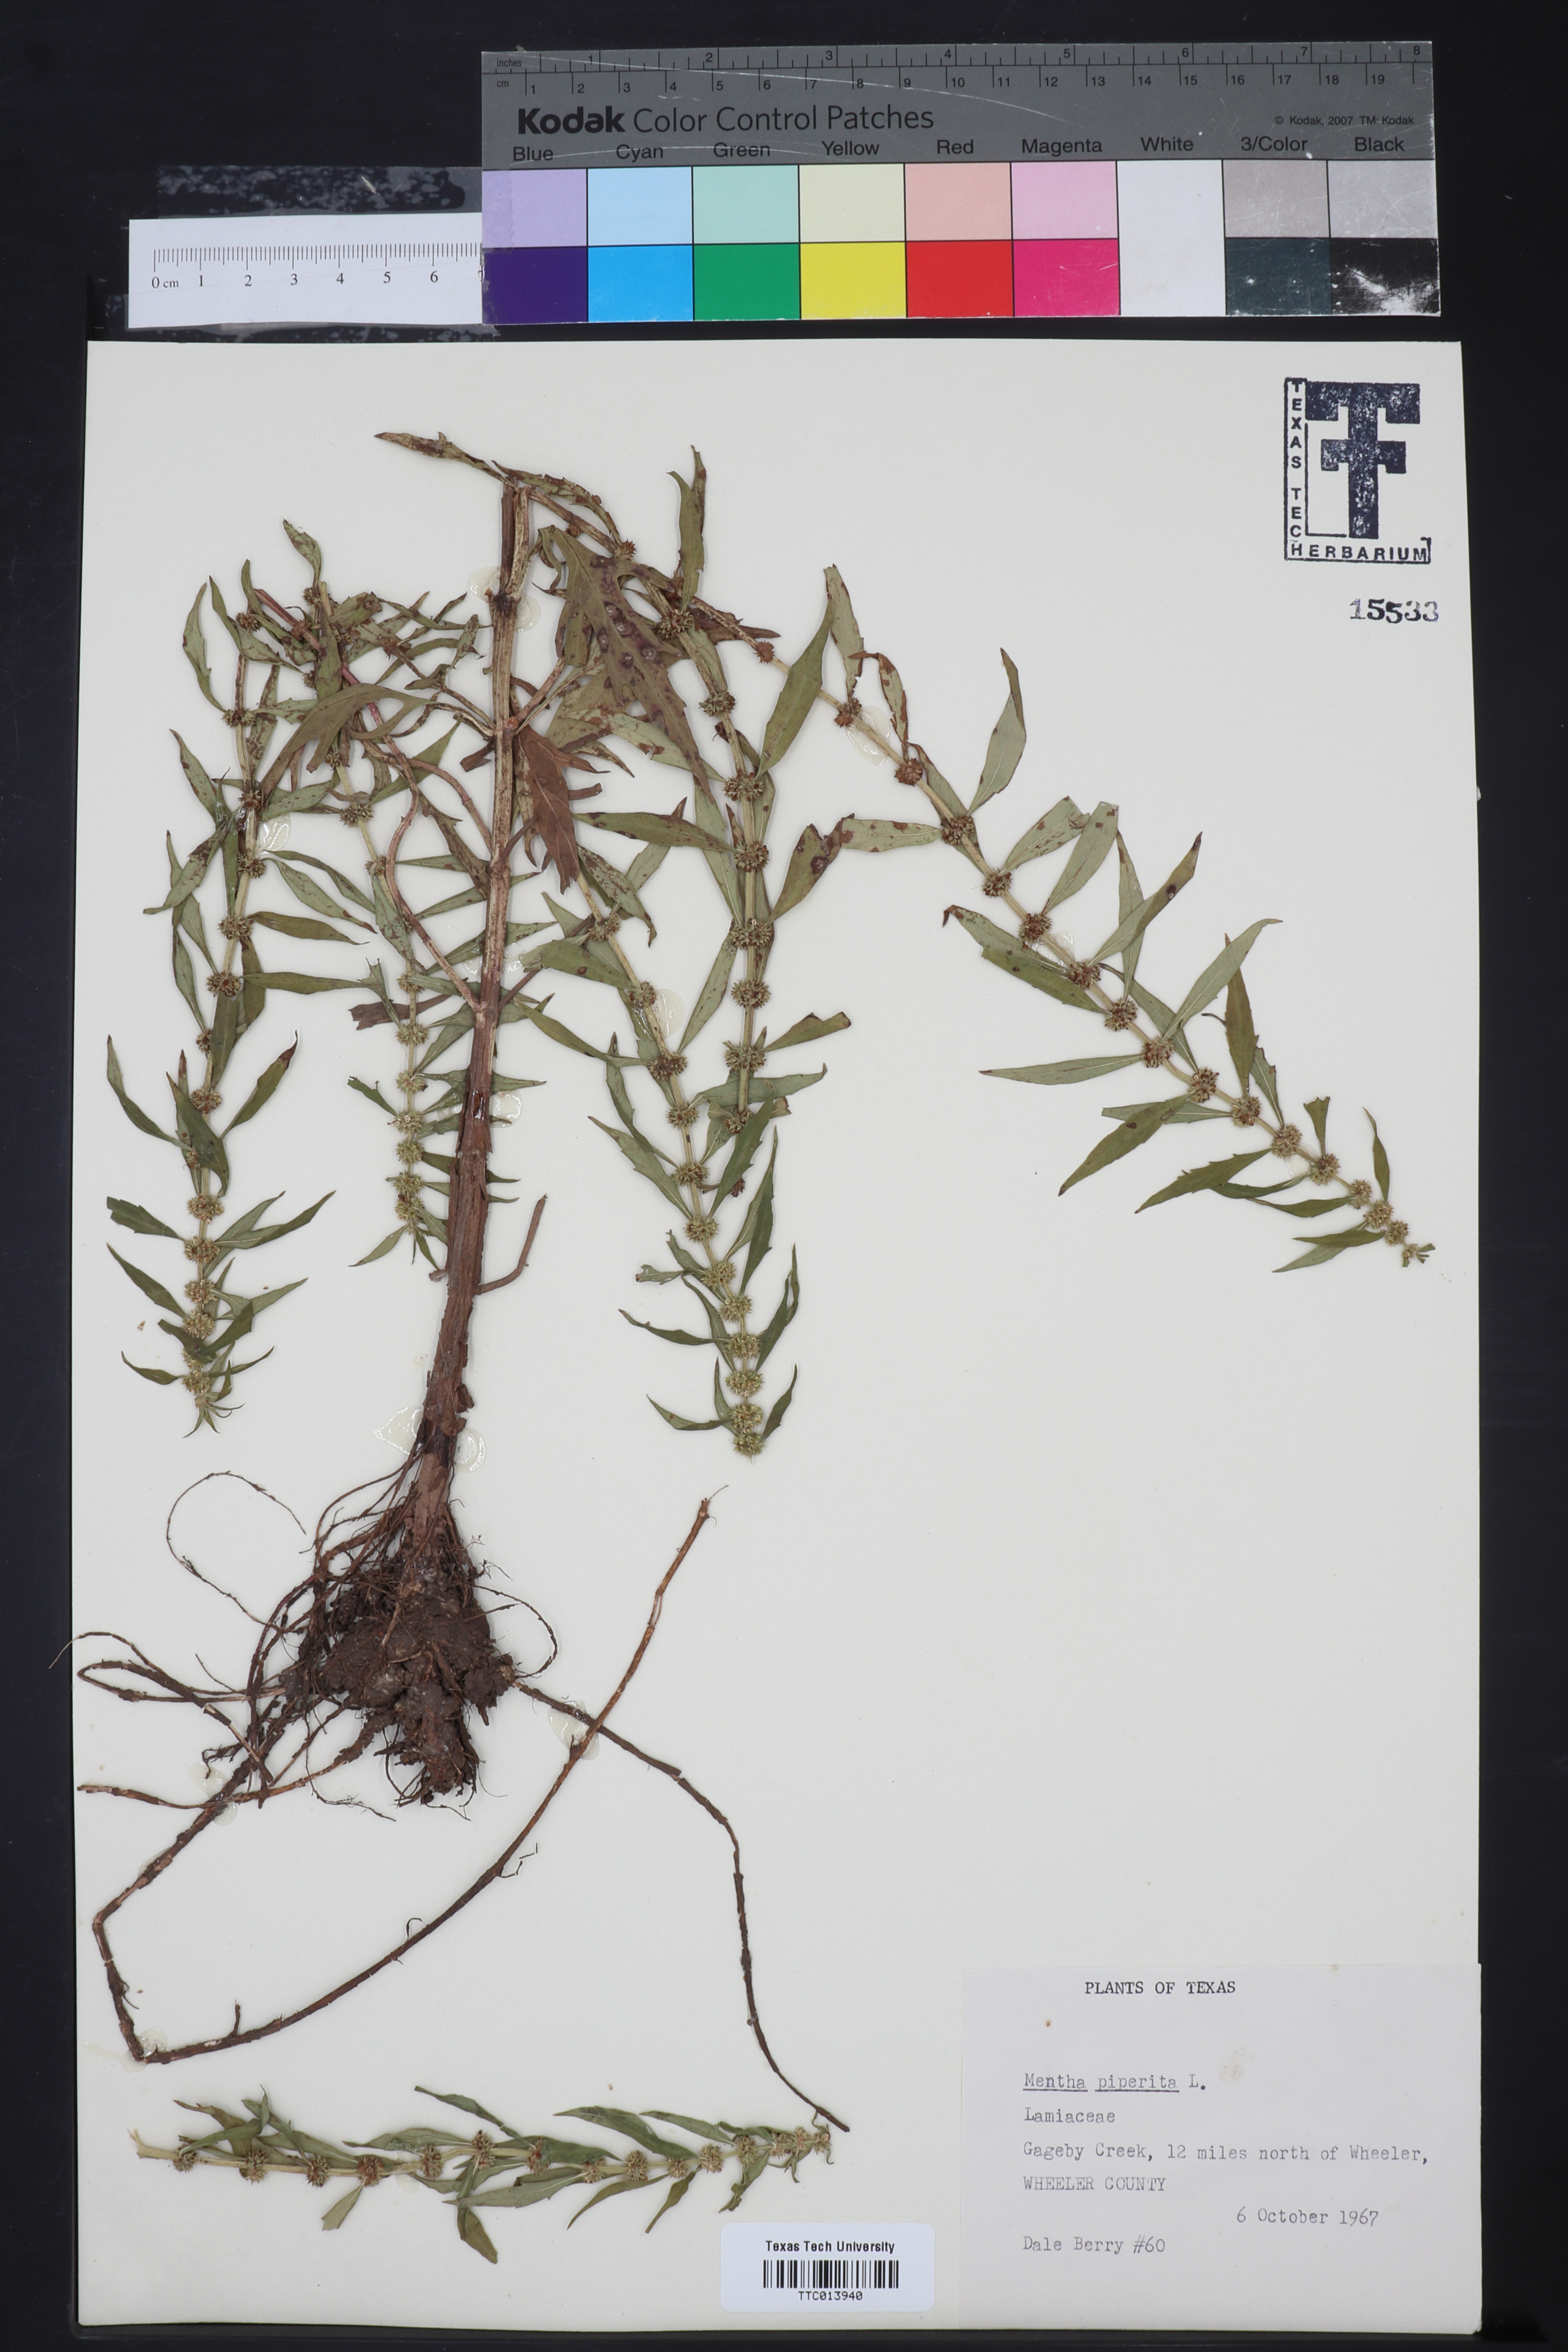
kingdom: Plantae
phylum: Tracheophyta
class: Magnoliopsida
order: Lamiales
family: Lamiaceae
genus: Mentha
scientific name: Mentha piperita
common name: Peppermint
